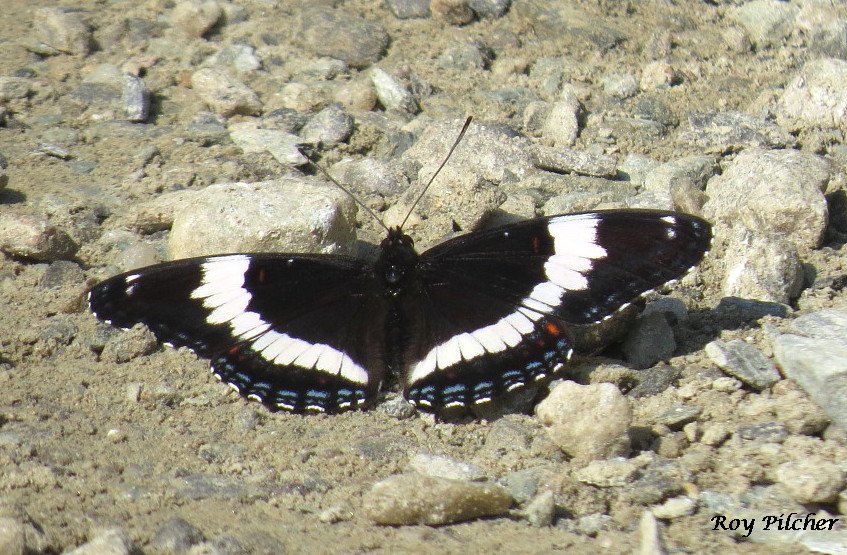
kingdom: Animalia
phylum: Arthropoda
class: Insecta
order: Lepidoptera
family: Nymphalidae
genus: Limenitis
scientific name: Limenitis
